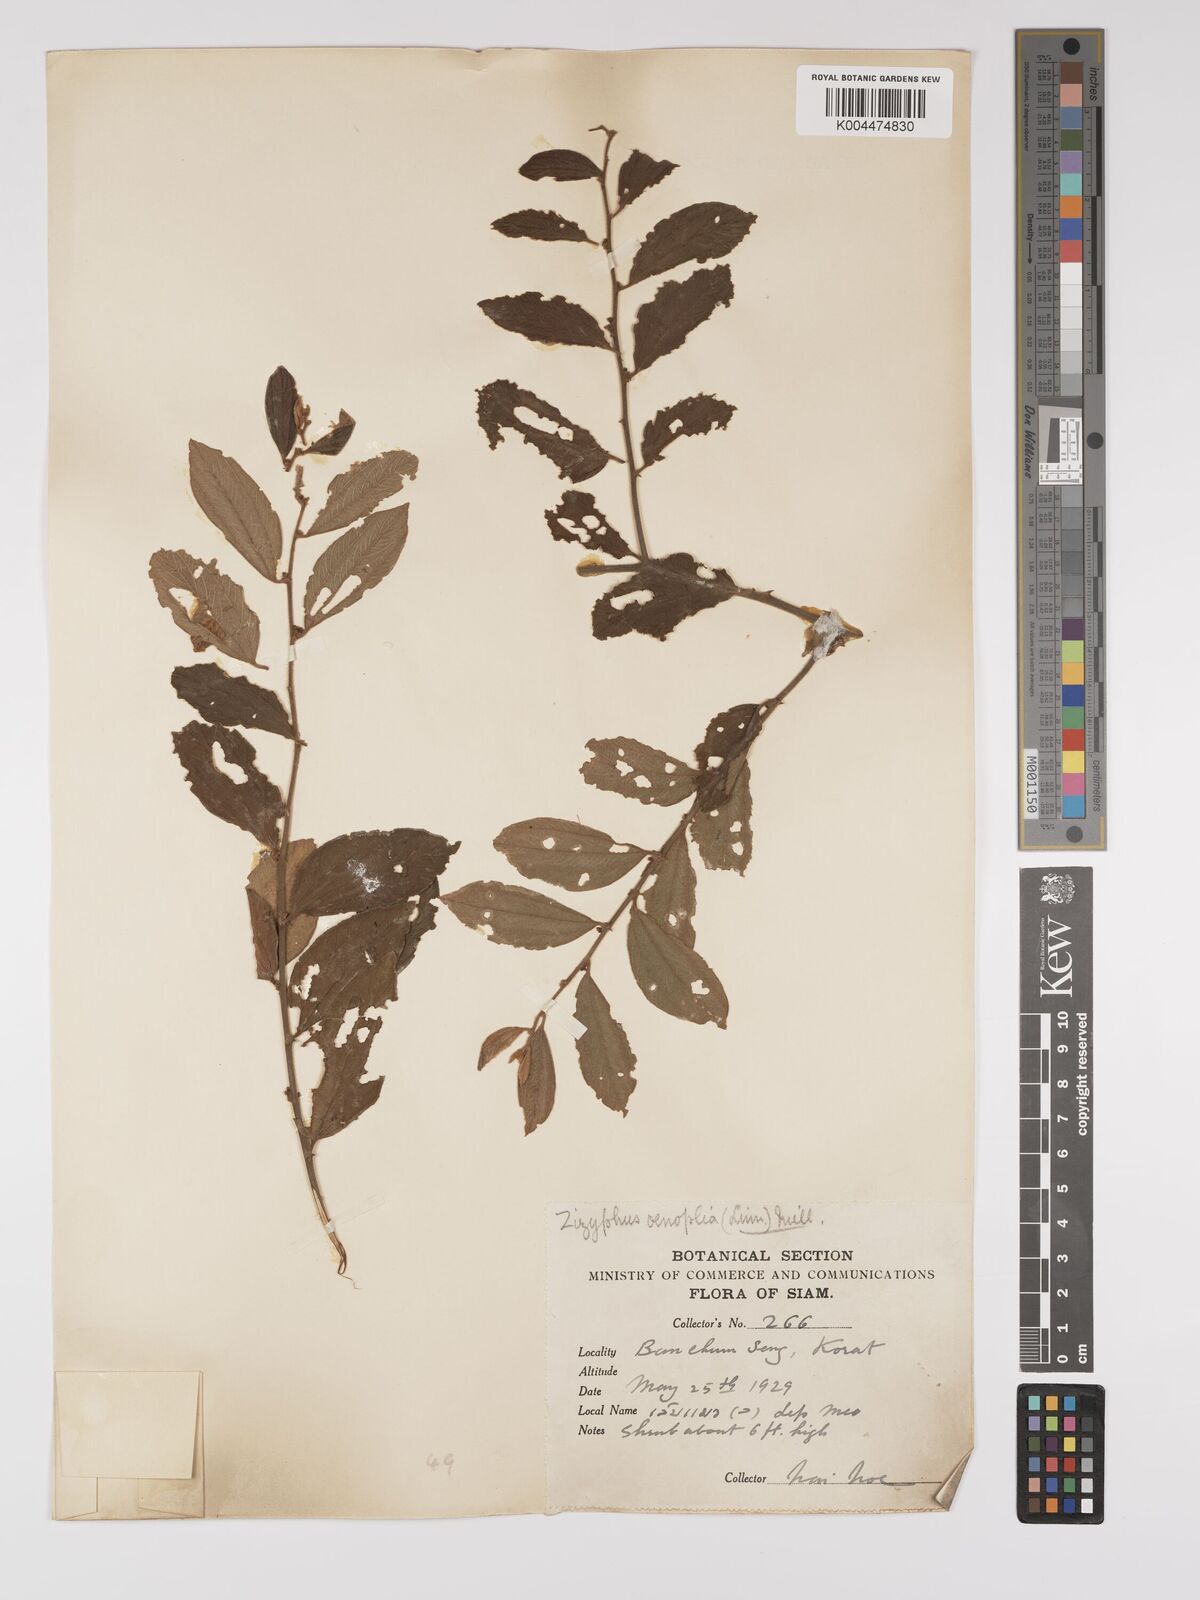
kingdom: Plantae
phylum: Tracheophyta
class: Magnoliopsida
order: Rosales
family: Rhamnaceae
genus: Ziziphus
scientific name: Ziziphus oenopolia
